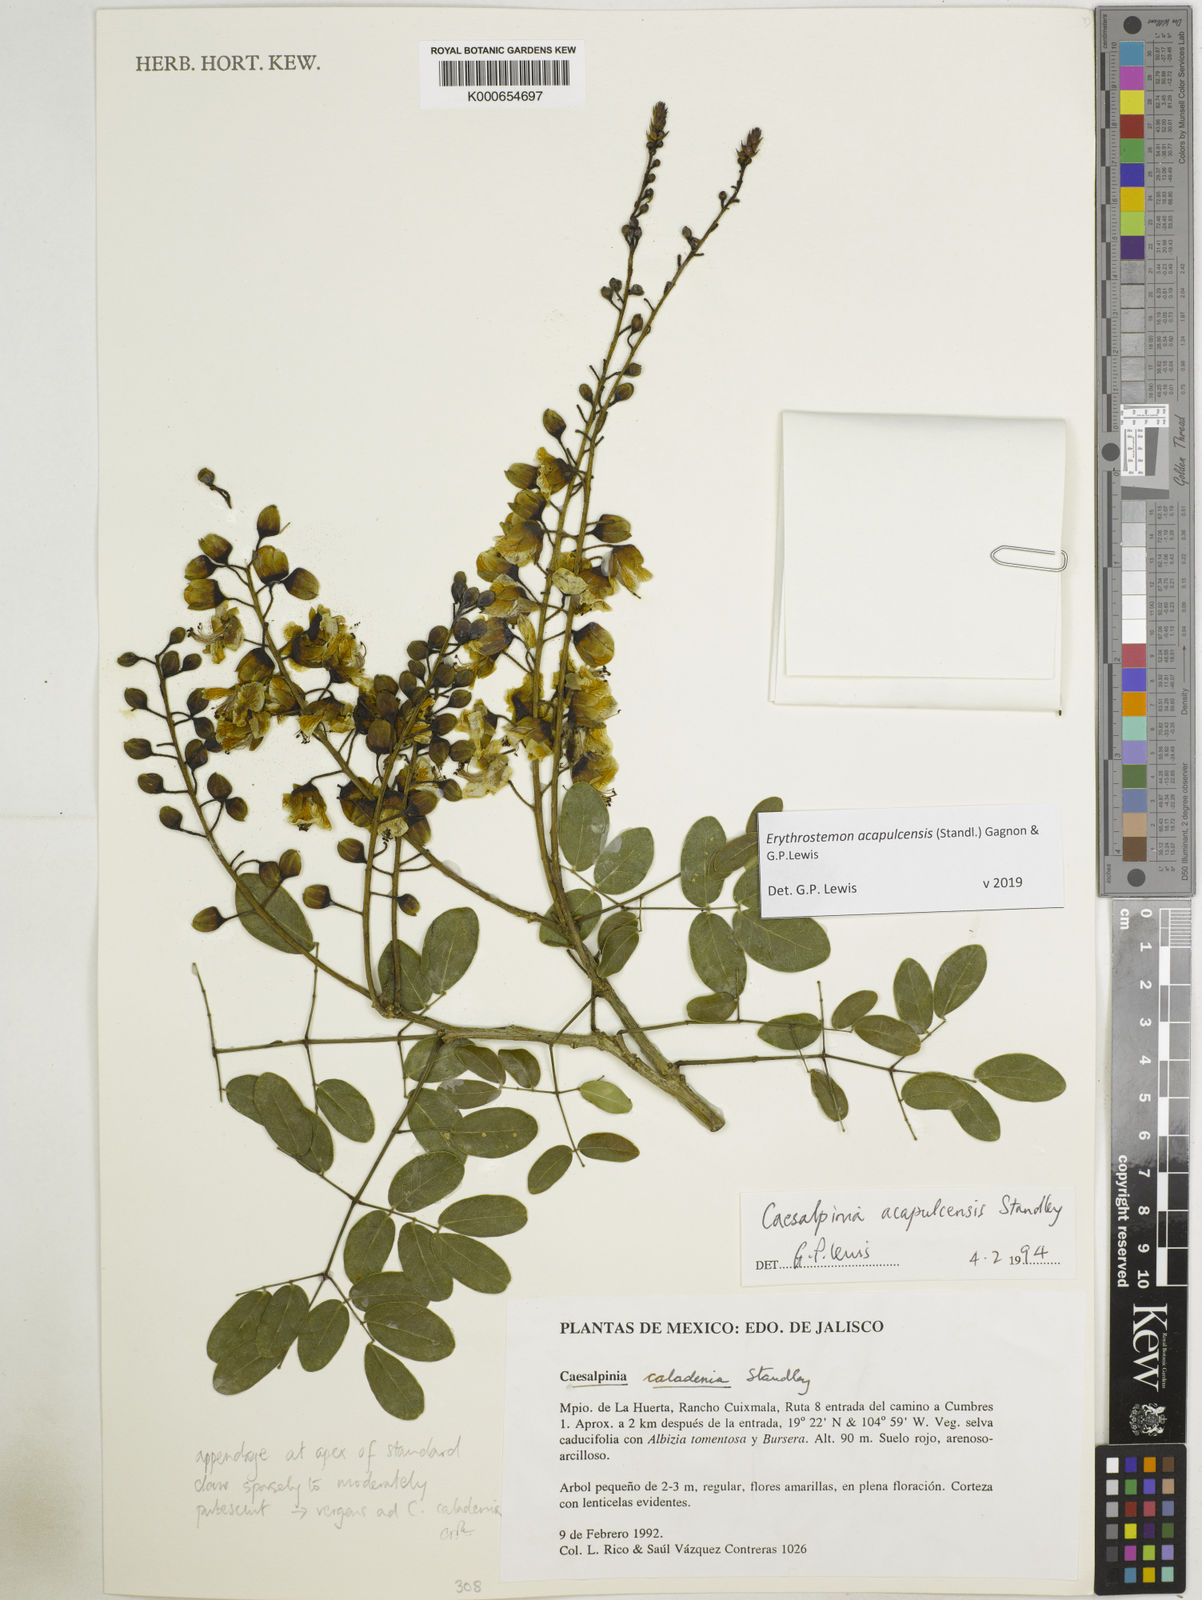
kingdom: Plantae
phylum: Tracheophyta
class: Magnoliopsida
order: Fabales
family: Fabaceae
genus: Erythrostemon
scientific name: Erythrostemon acapulcensis
